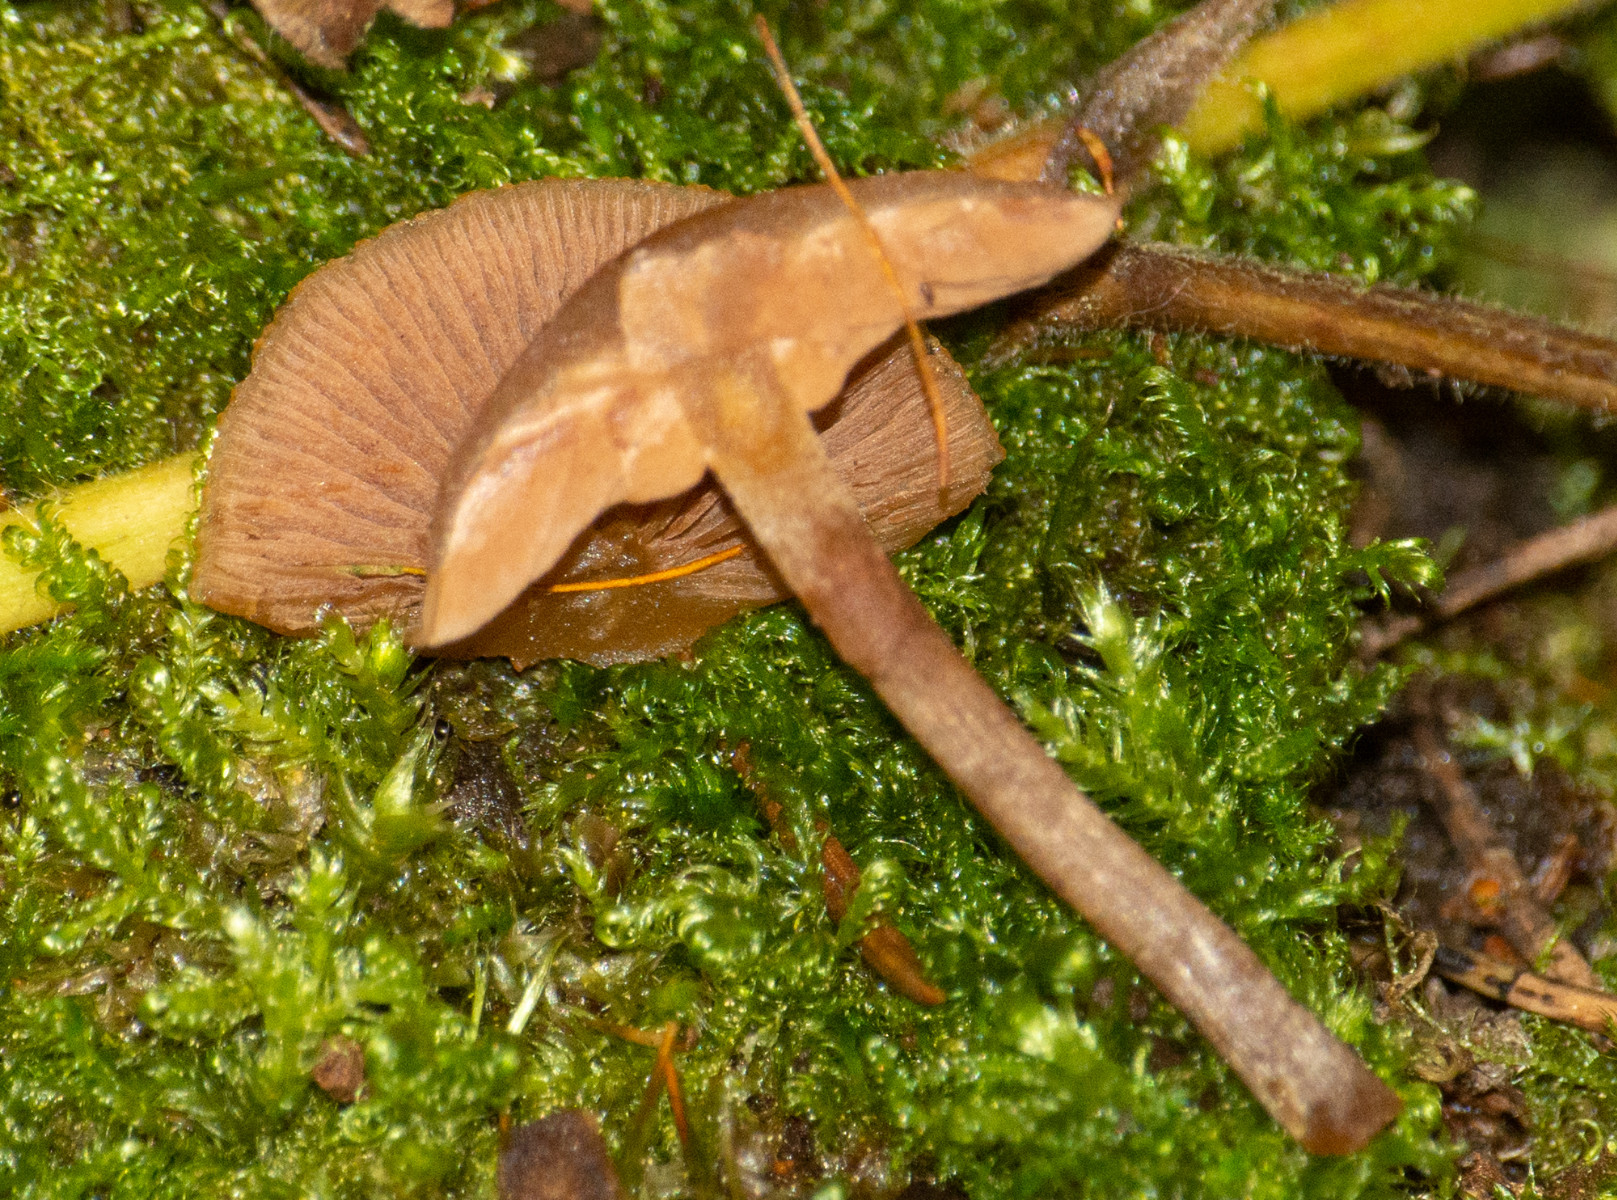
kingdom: Fungi
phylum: Basidiomycota
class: Agaricomycetes
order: Agaricales
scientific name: Agaricales
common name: champignonordenen
